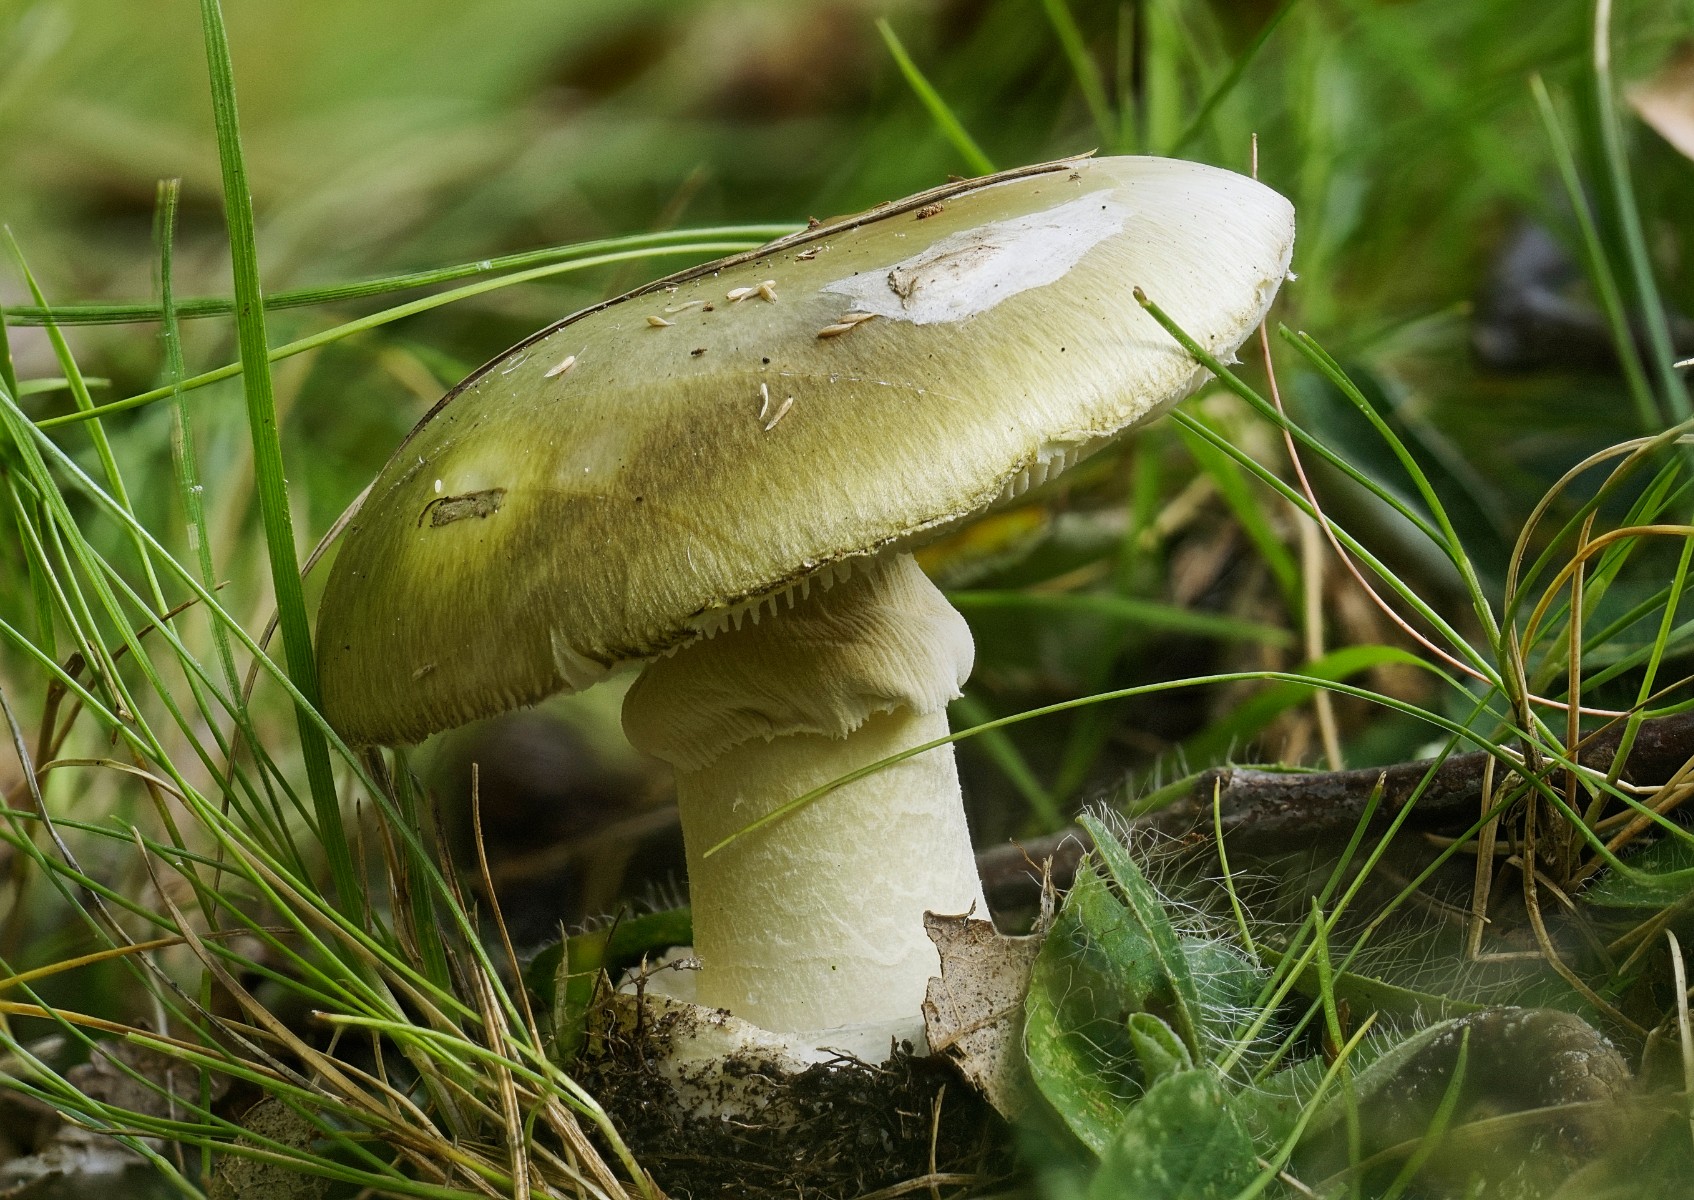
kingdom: Fungi
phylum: Basidiomycota
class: Agaricomycetes
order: Agaricales
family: Amanitaceae
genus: Amanita
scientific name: Amanita phalloides
